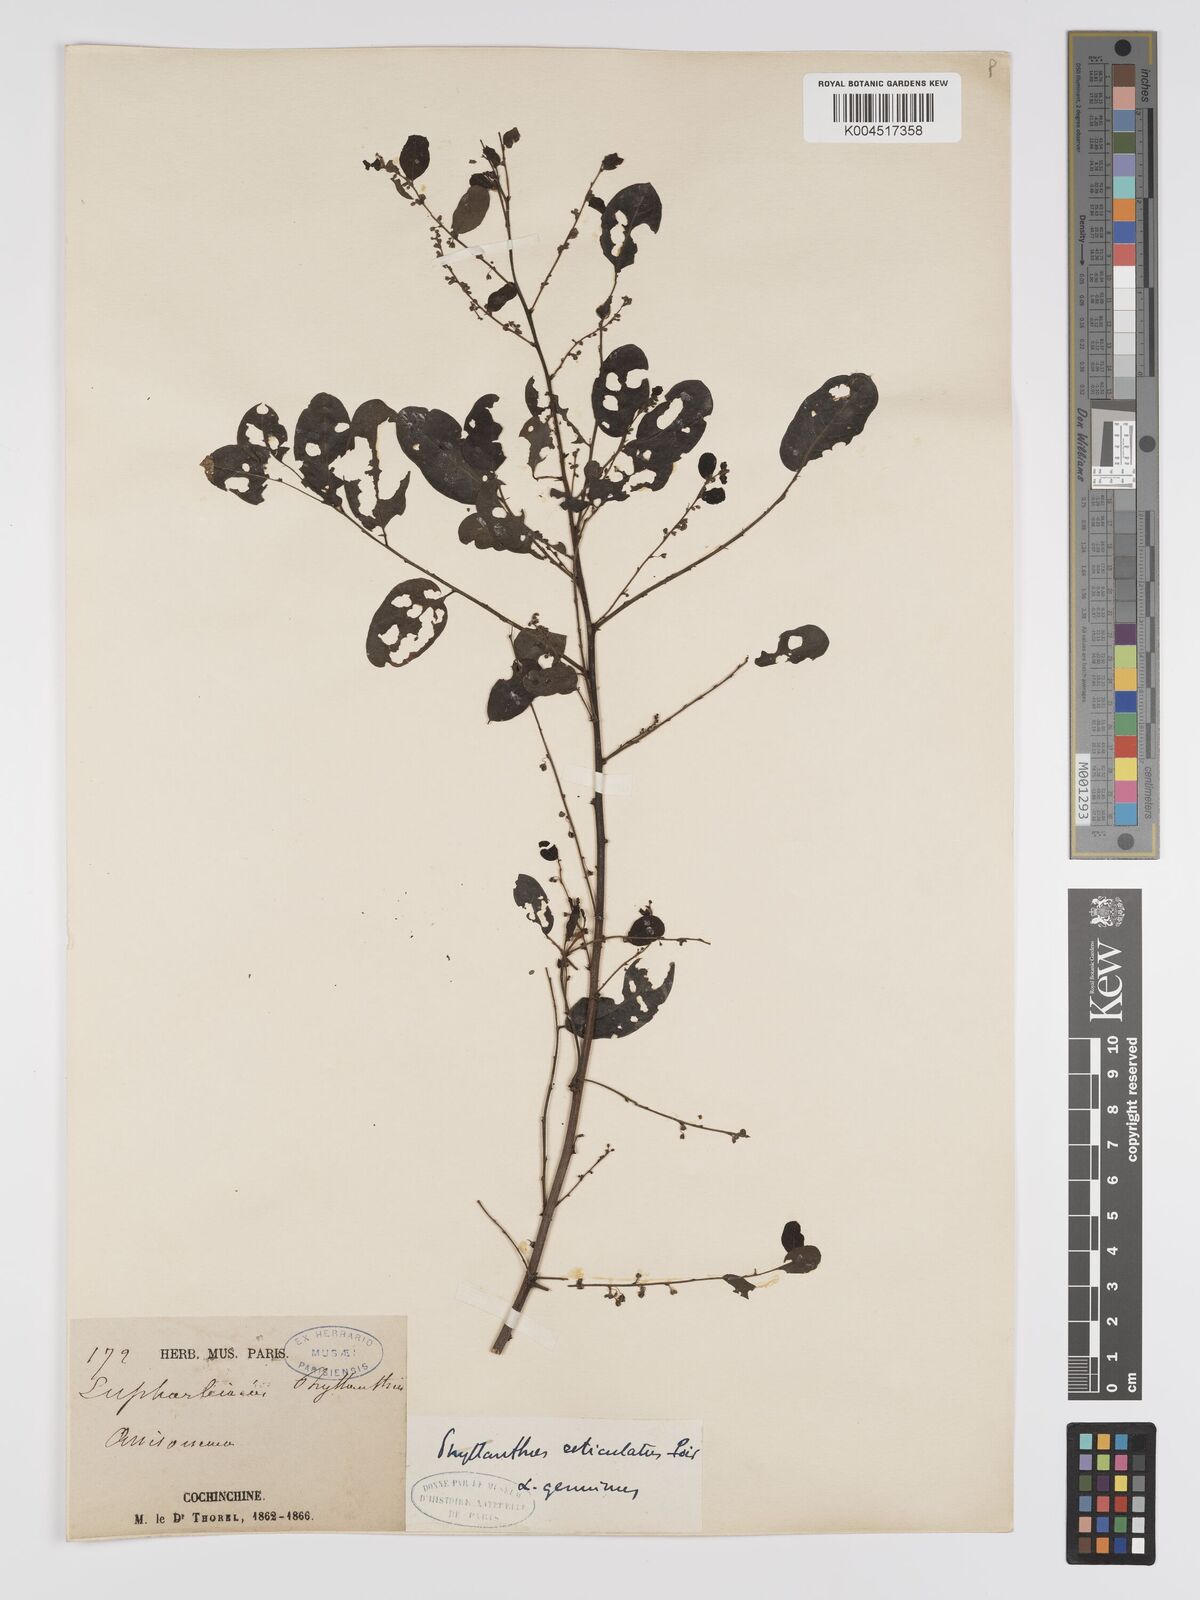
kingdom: Plantae
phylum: Tracheophyta
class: Magnoliopsida
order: Malpighiales
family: Phyllanthaceae
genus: Phyllanthus
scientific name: Phyllanthus reticulatus
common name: Potato bush
